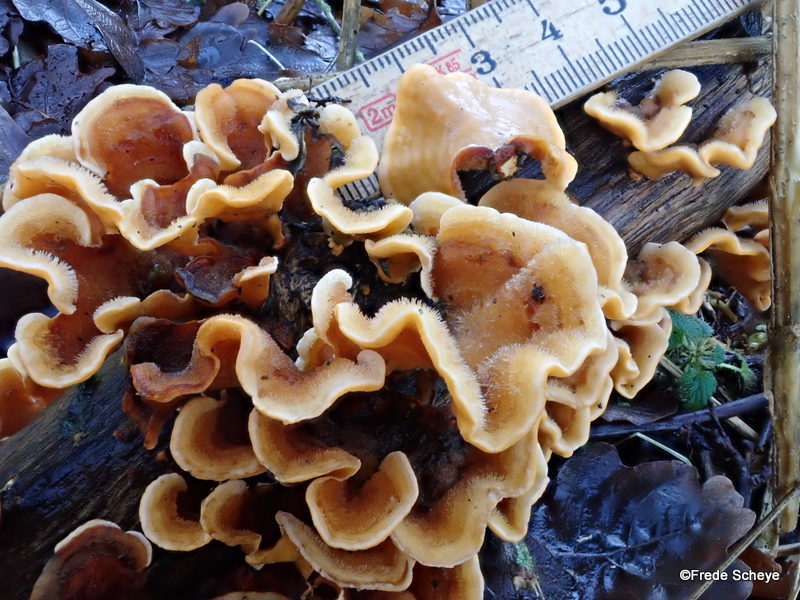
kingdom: Fungi
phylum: Basidiomycota
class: Agaricomycetes
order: Russulales
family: Stereaceae
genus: Stereum
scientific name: Stereum hirsutum
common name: håret lædersvamp
